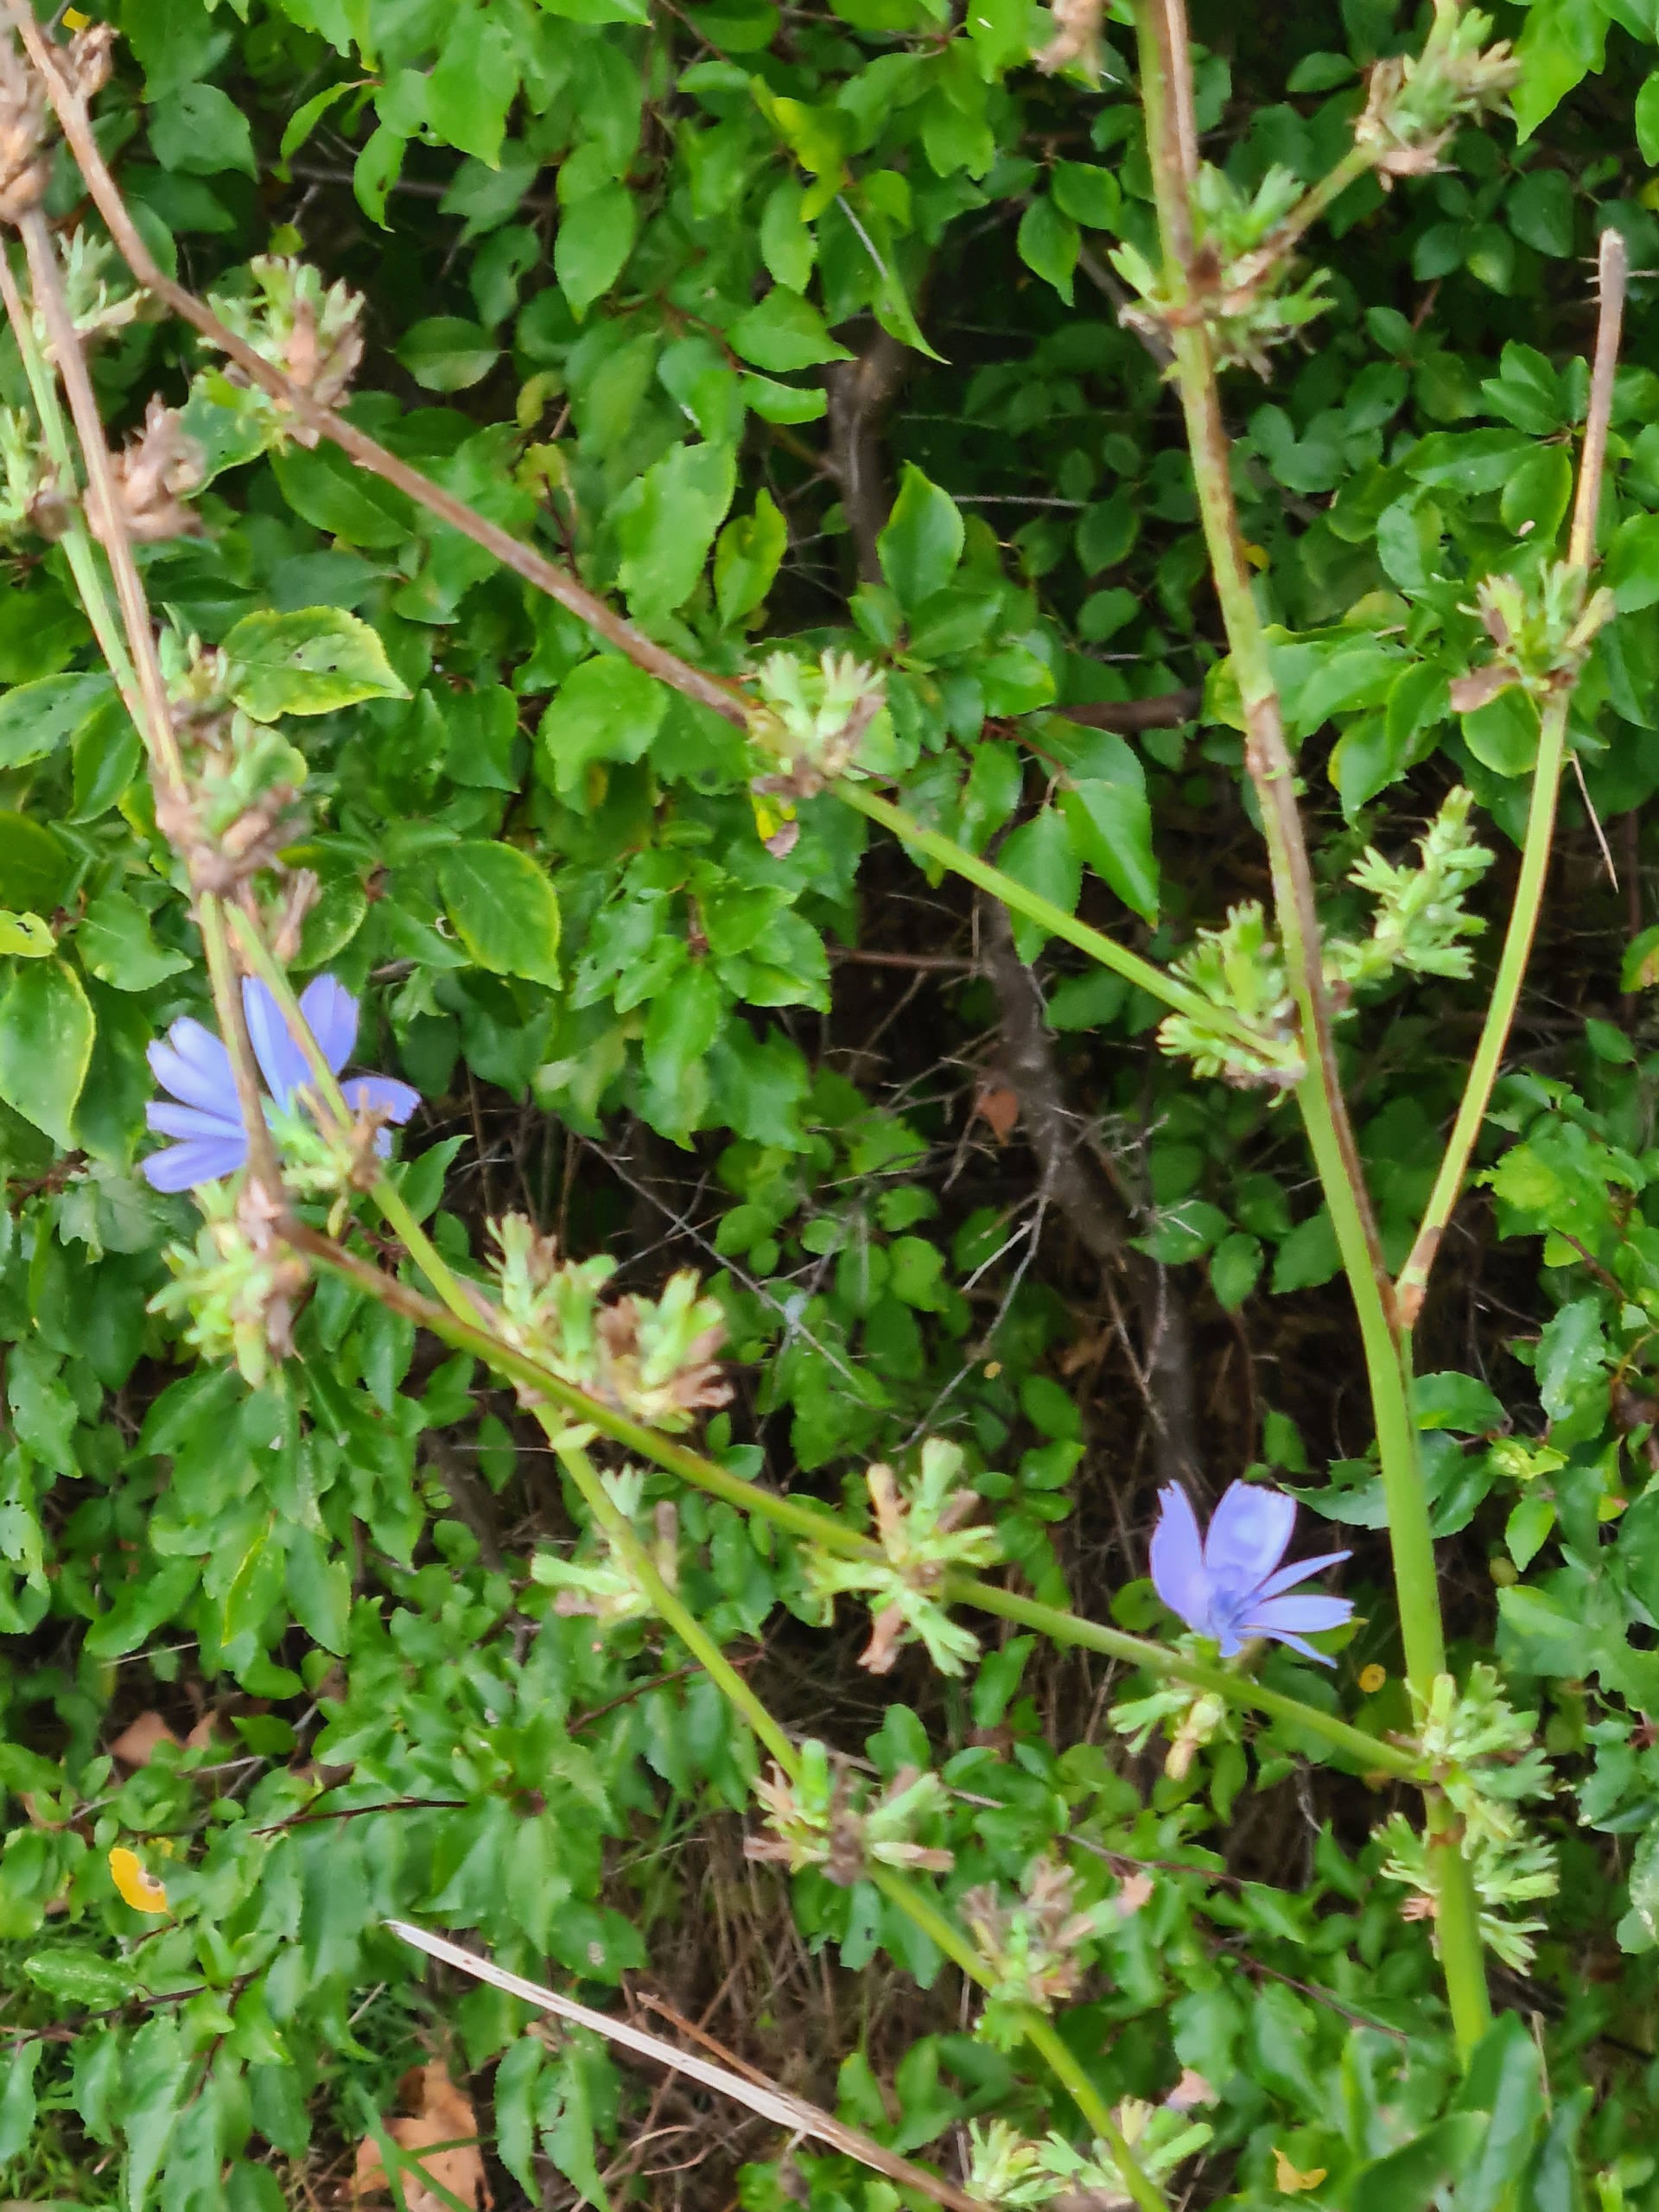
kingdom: Plantae
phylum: Tracheophyta
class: Magnoliopsida
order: Asterales
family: Asteraceae
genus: Cichorium
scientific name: Cichorium intybus
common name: Cikorie
